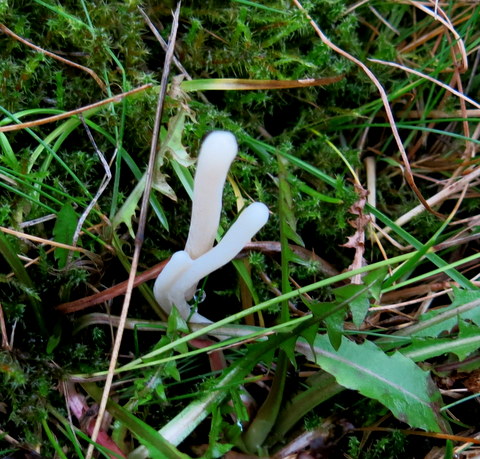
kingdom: Fungi
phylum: Basidiomycota
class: Agaricomycetes
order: Agaricales
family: Clavariaceae
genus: Clavaria
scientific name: Clavaria falcata
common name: hvid køllesvamp
